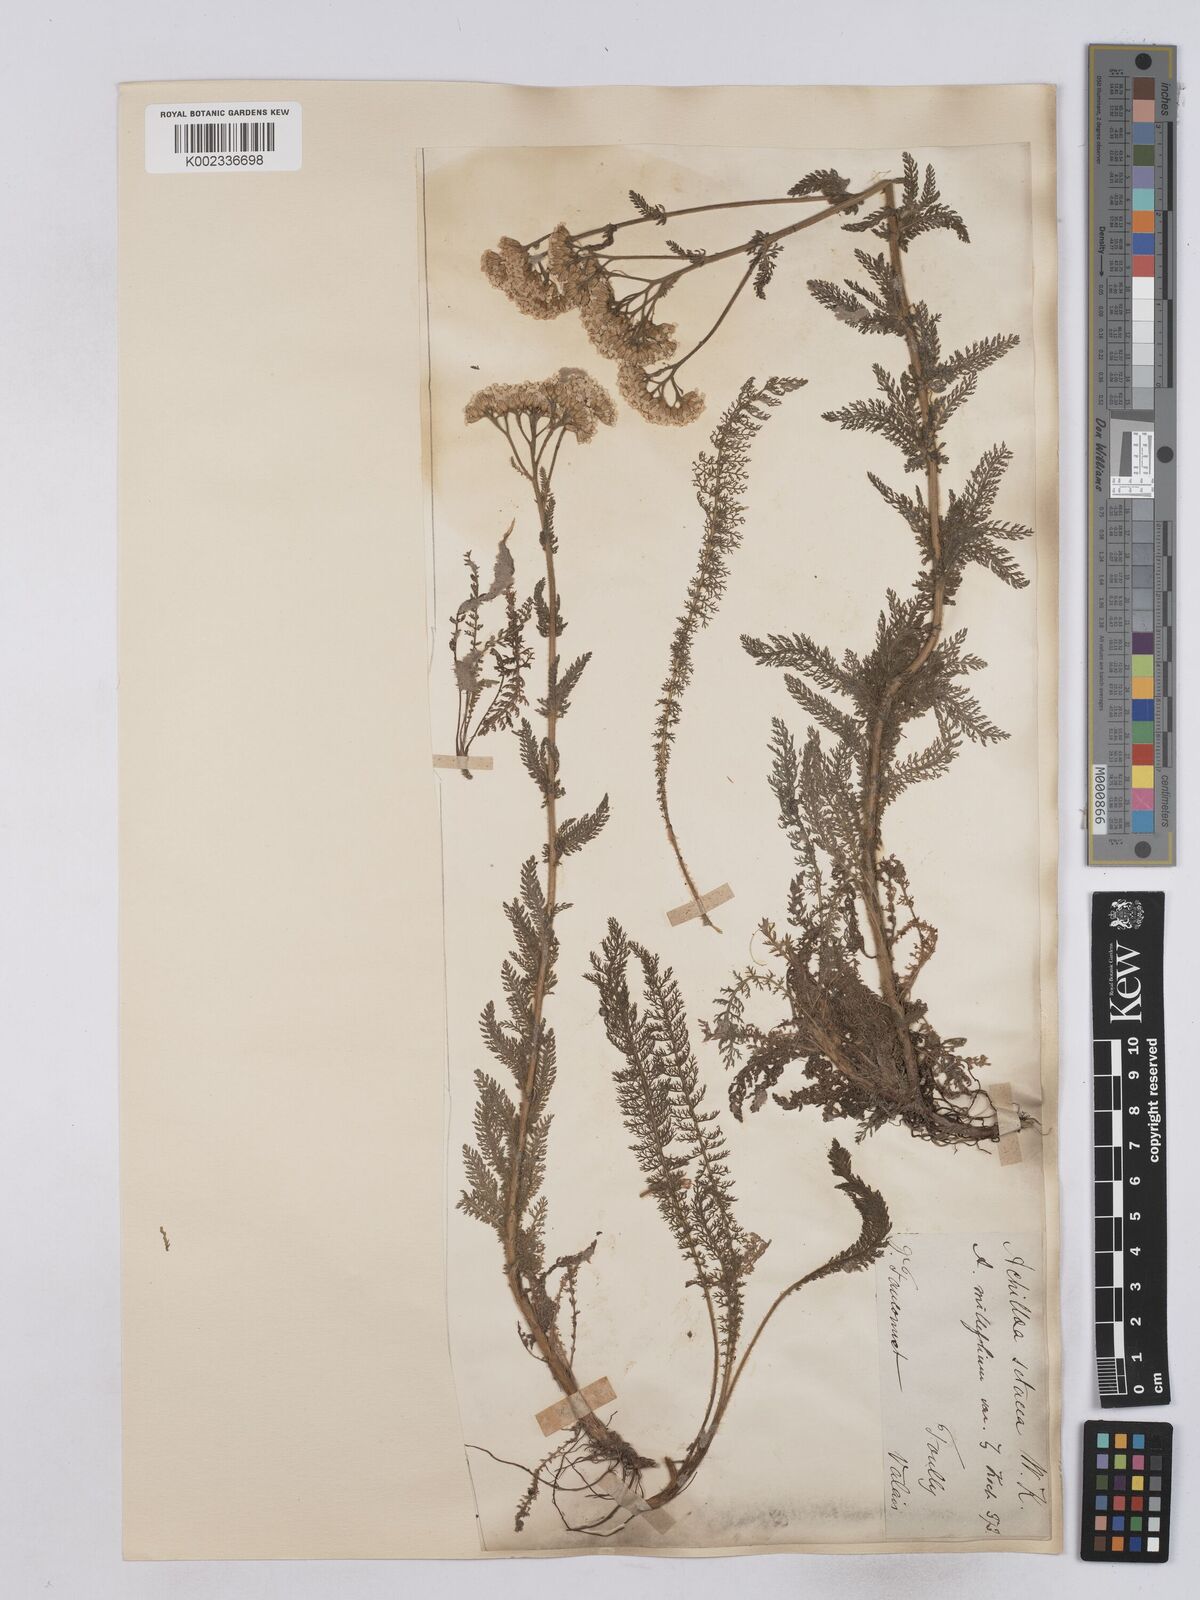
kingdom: Plantae
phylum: Tracheophyta
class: Magnoliopsida
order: Asterales
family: Asteraceae
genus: Achillea
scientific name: Achillea setacea
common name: Bristly yarrow
